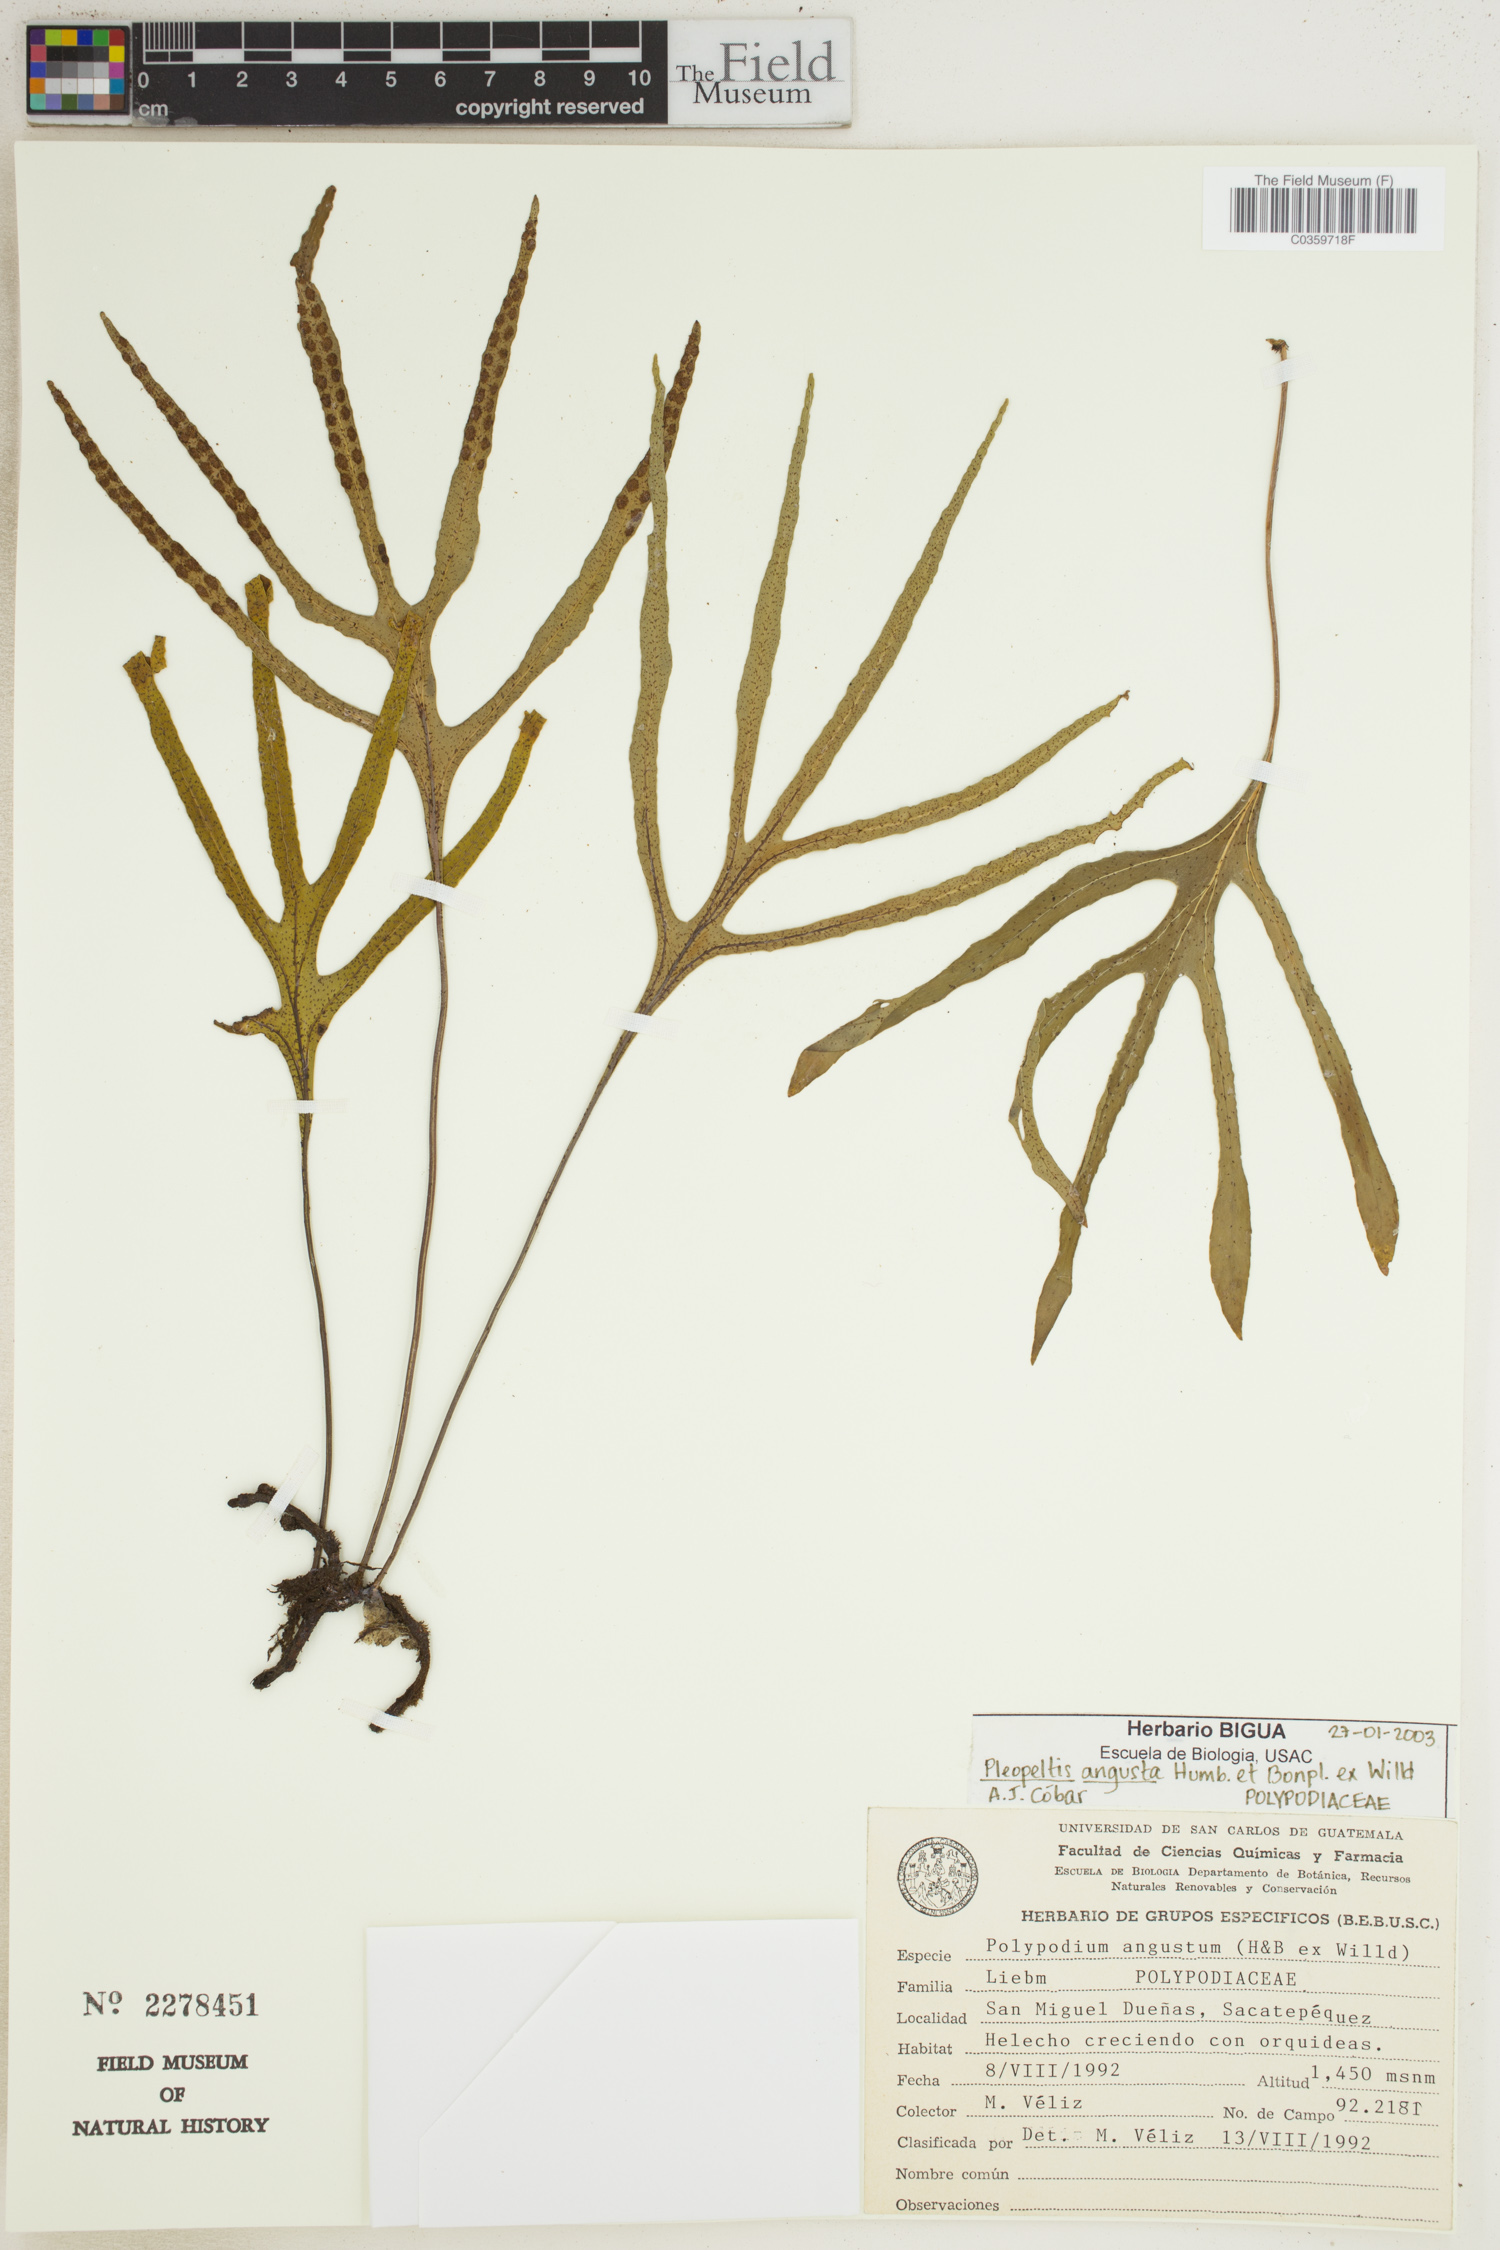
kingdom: Plantae
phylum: Tracheophyta
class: Polypodiopsida
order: Polypodiales
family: Polypodiaceae
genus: Pleopeltis
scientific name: Pleopeltis angusta
